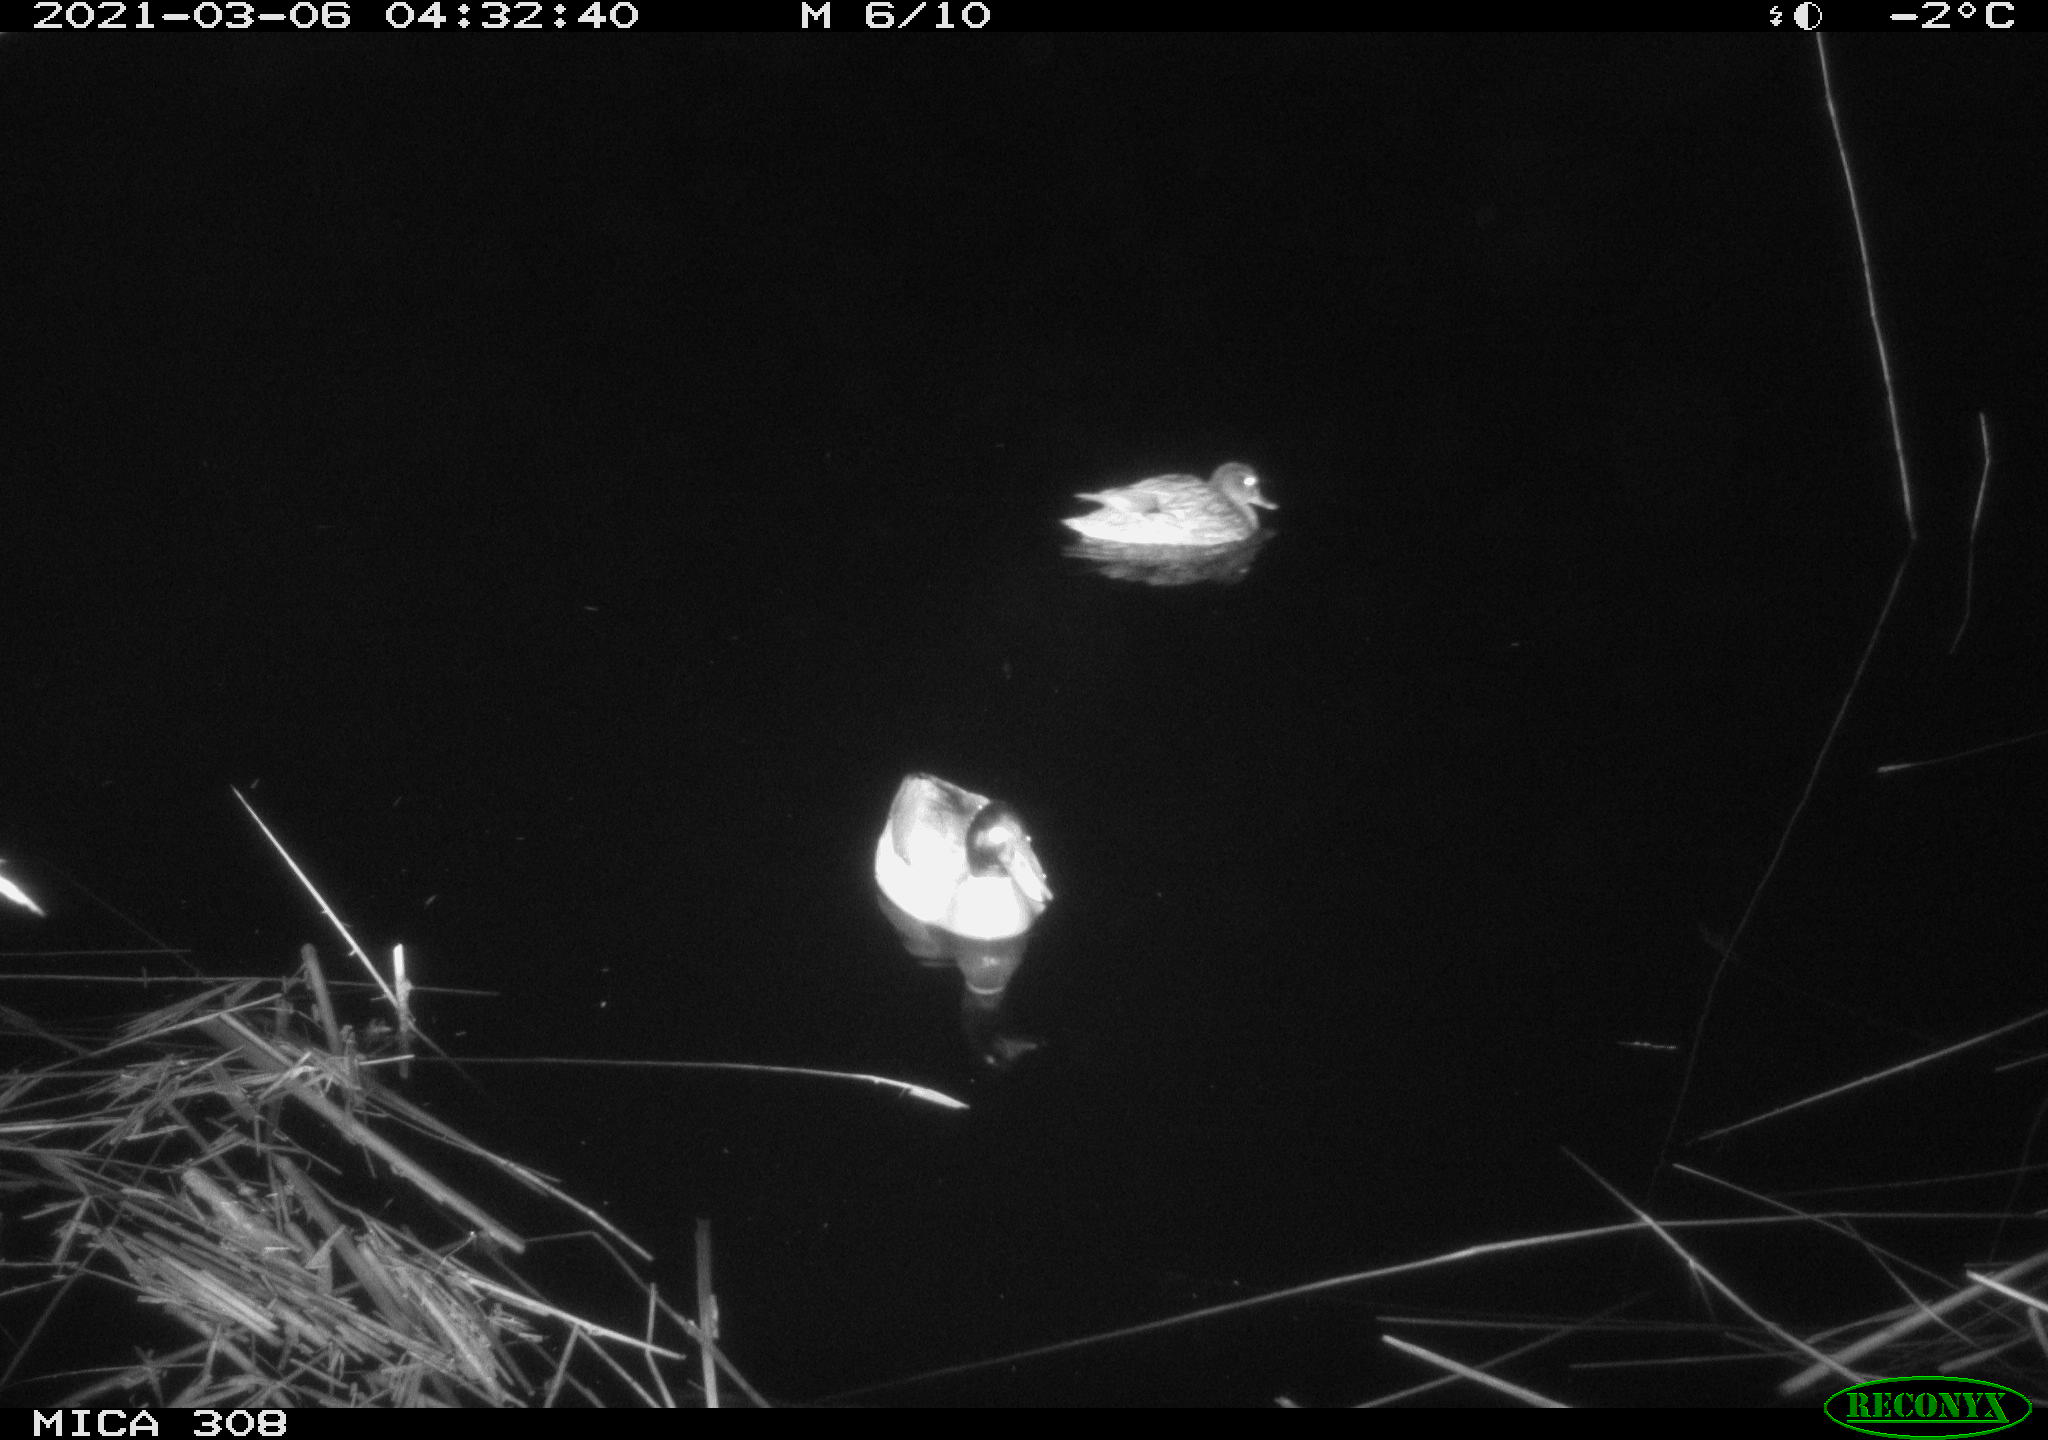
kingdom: Animalia
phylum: Chordata
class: Aves
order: Anseriformes
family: Anatidae
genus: Anas
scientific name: Anas platyrhynchos
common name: Mallard
